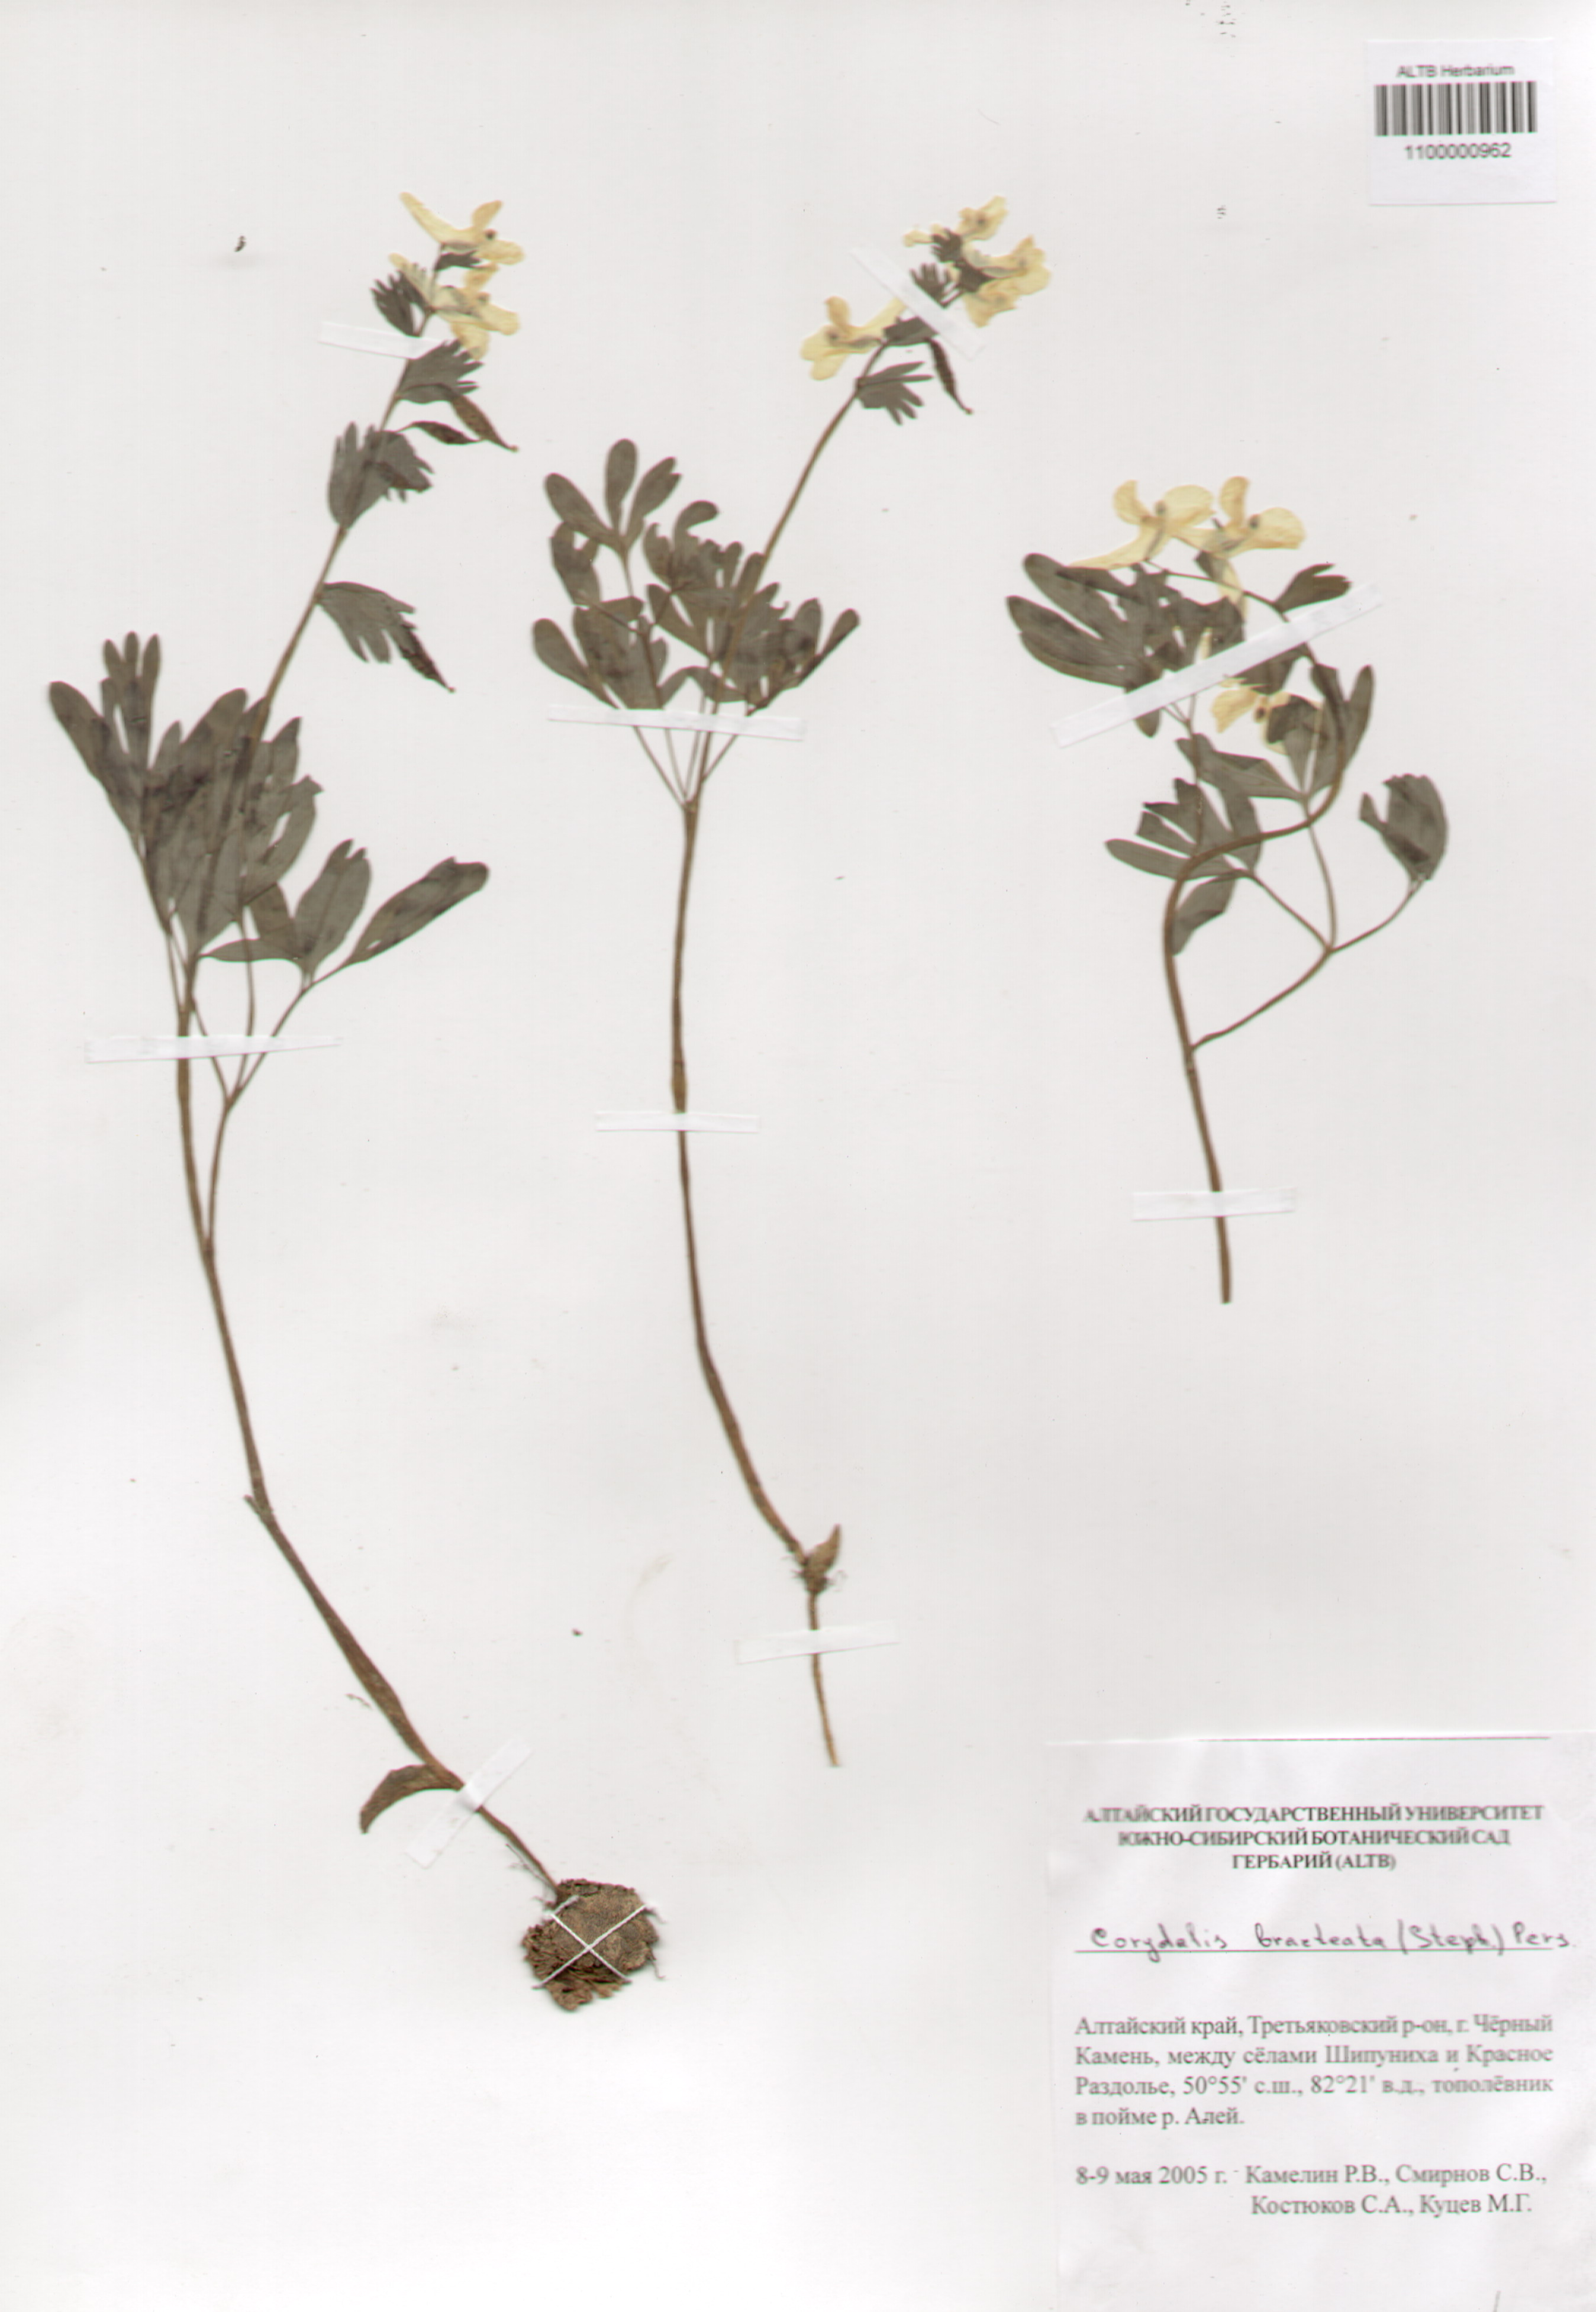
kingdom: Plantae
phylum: Tracheophyta
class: Magnoliopsida
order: Ranunculales
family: Papaveraceae
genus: Corydalis
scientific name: Corydalis bracteata
